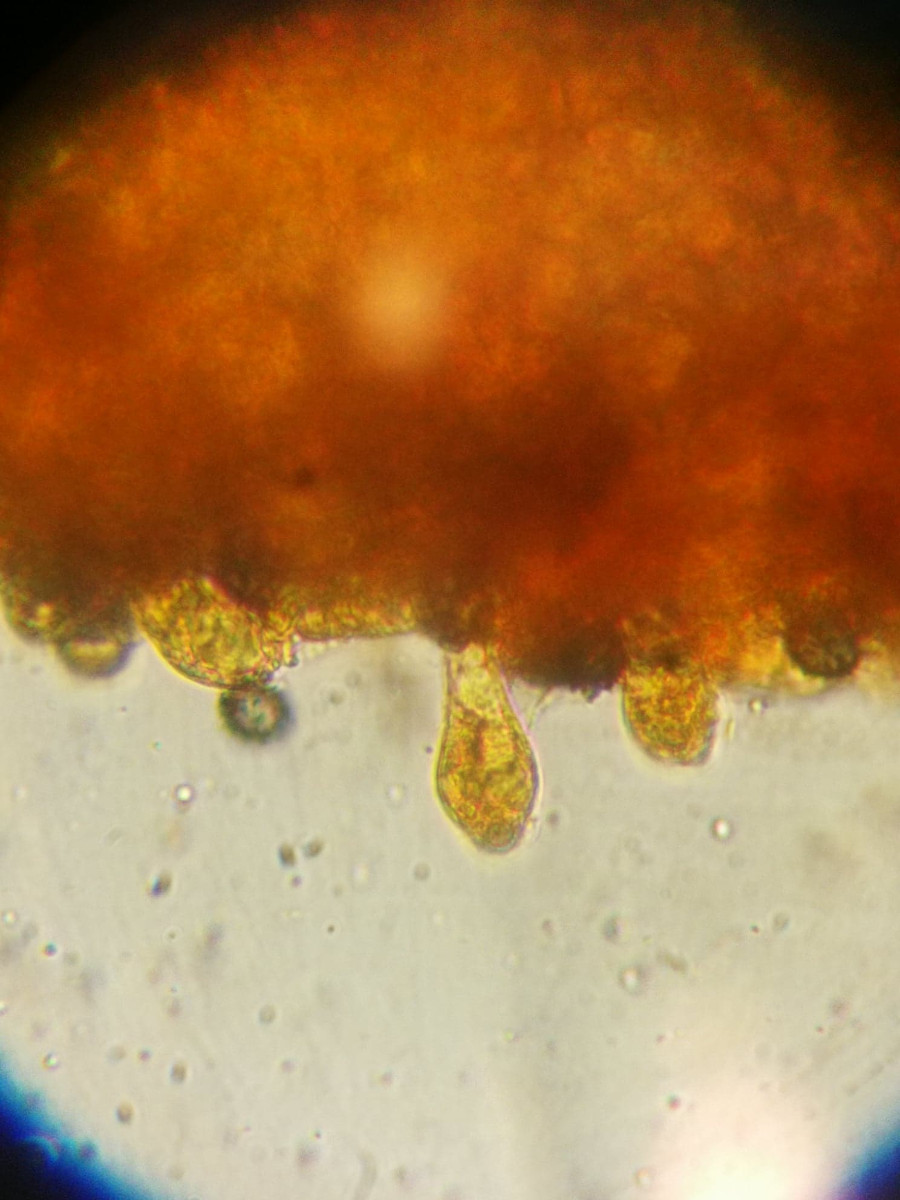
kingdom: Fungi
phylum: Basidiomycota
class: Agaricomycetes
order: Russulales
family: Russulaceae
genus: Russula
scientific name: Russula emetica
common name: stor gift-skørhat
